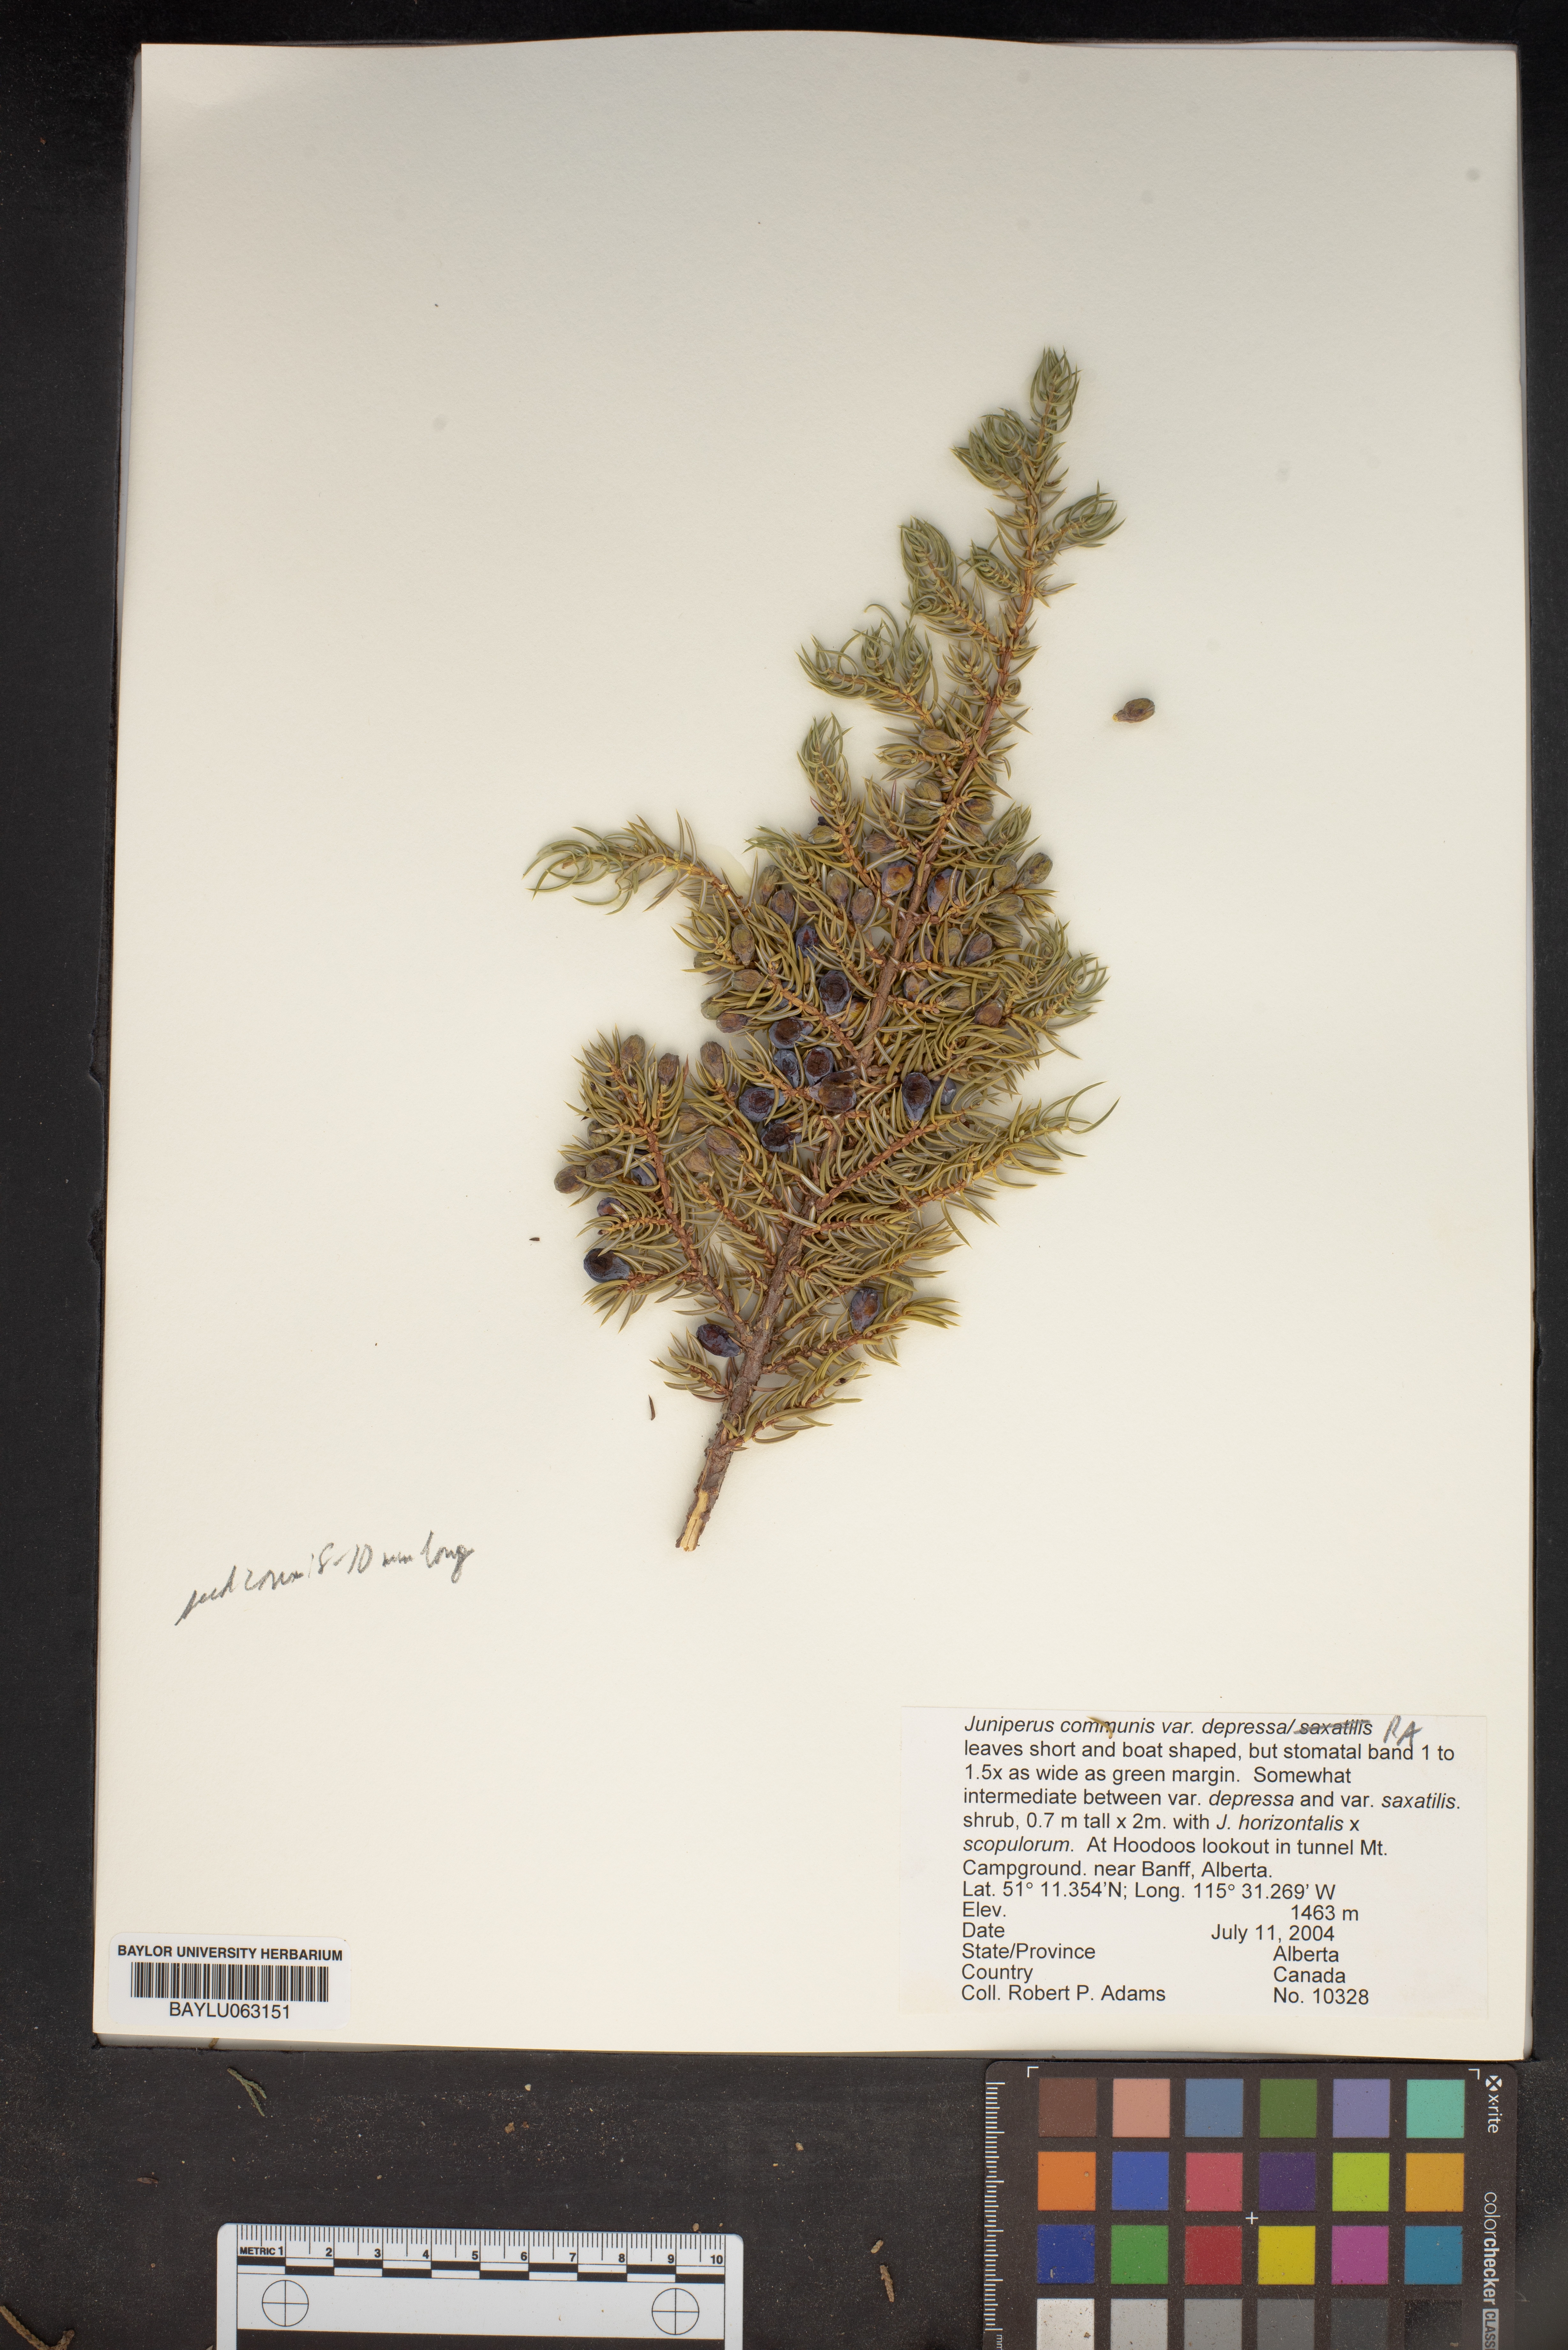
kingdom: Plantae
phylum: Tracheophyta
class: Pinopsida
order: Pinales
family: Cupressaceae
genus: Juniperus
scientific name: Juniperus communis
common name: Common juniper
